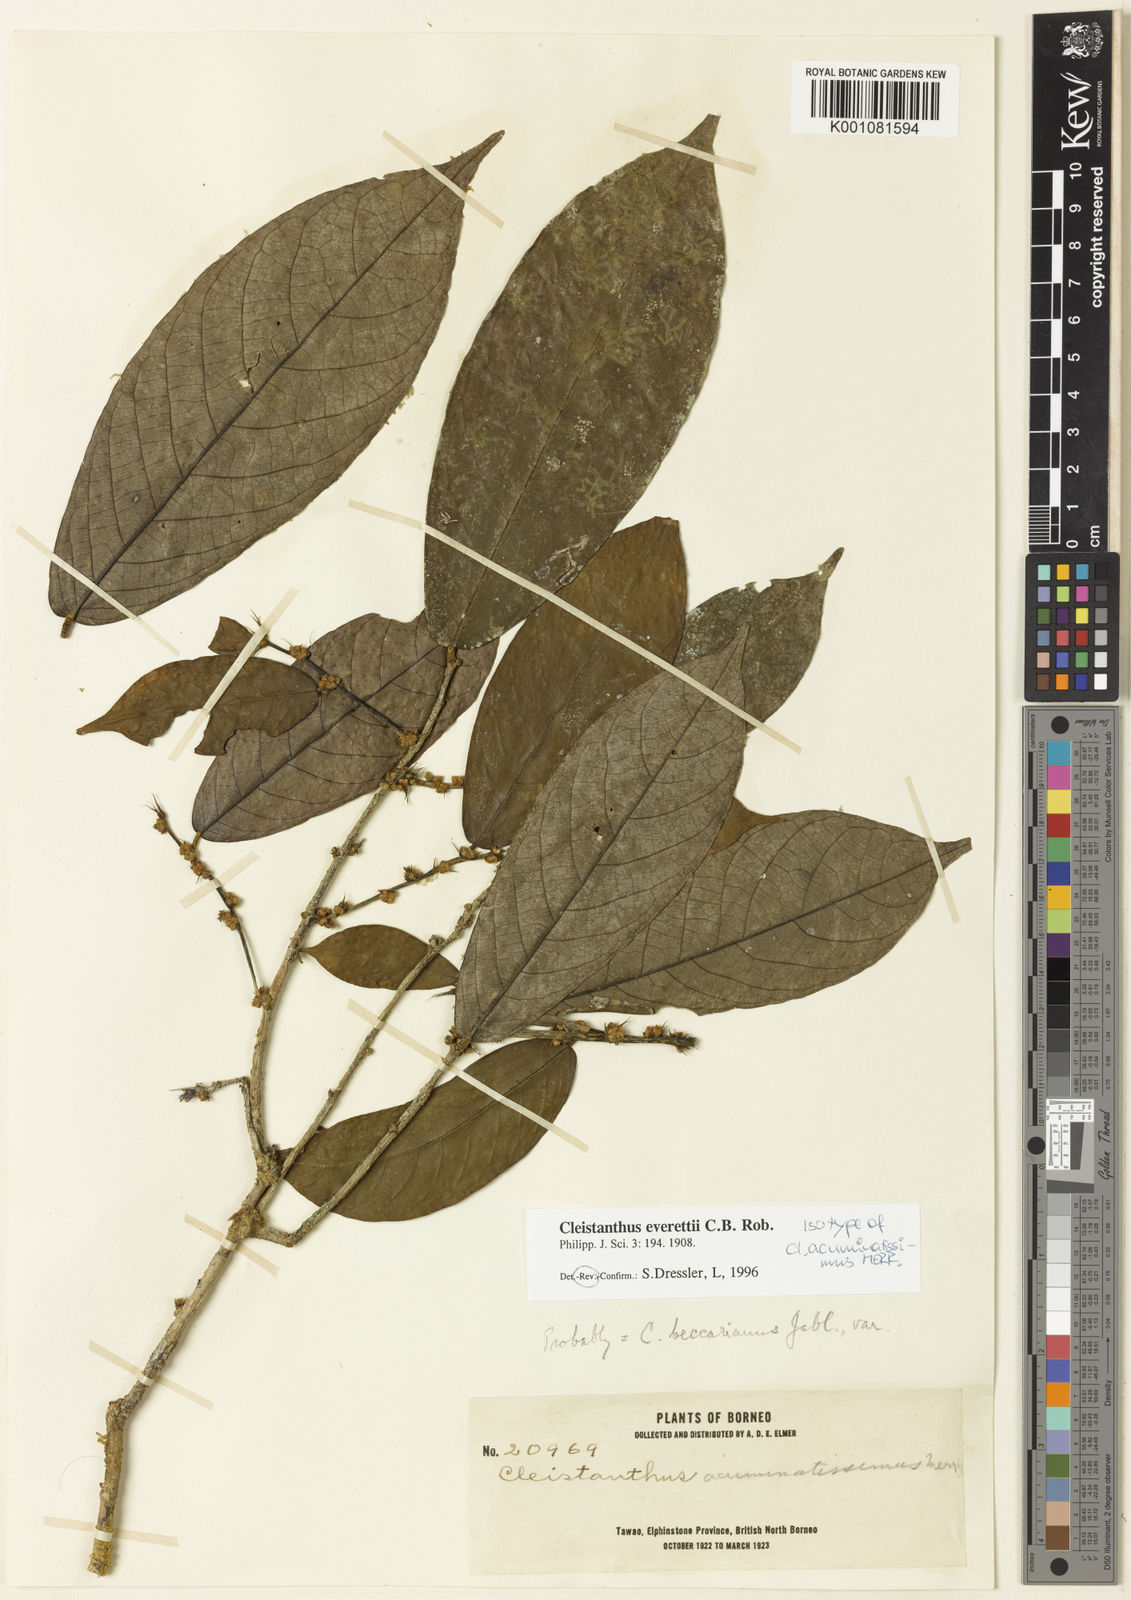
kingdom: Plantae
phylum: Tracheophyta
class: Magnoliopsida
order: Malpighiales
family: Phyllanthaceae
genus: Cleistanthus
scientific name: Cleistanthus everettii
